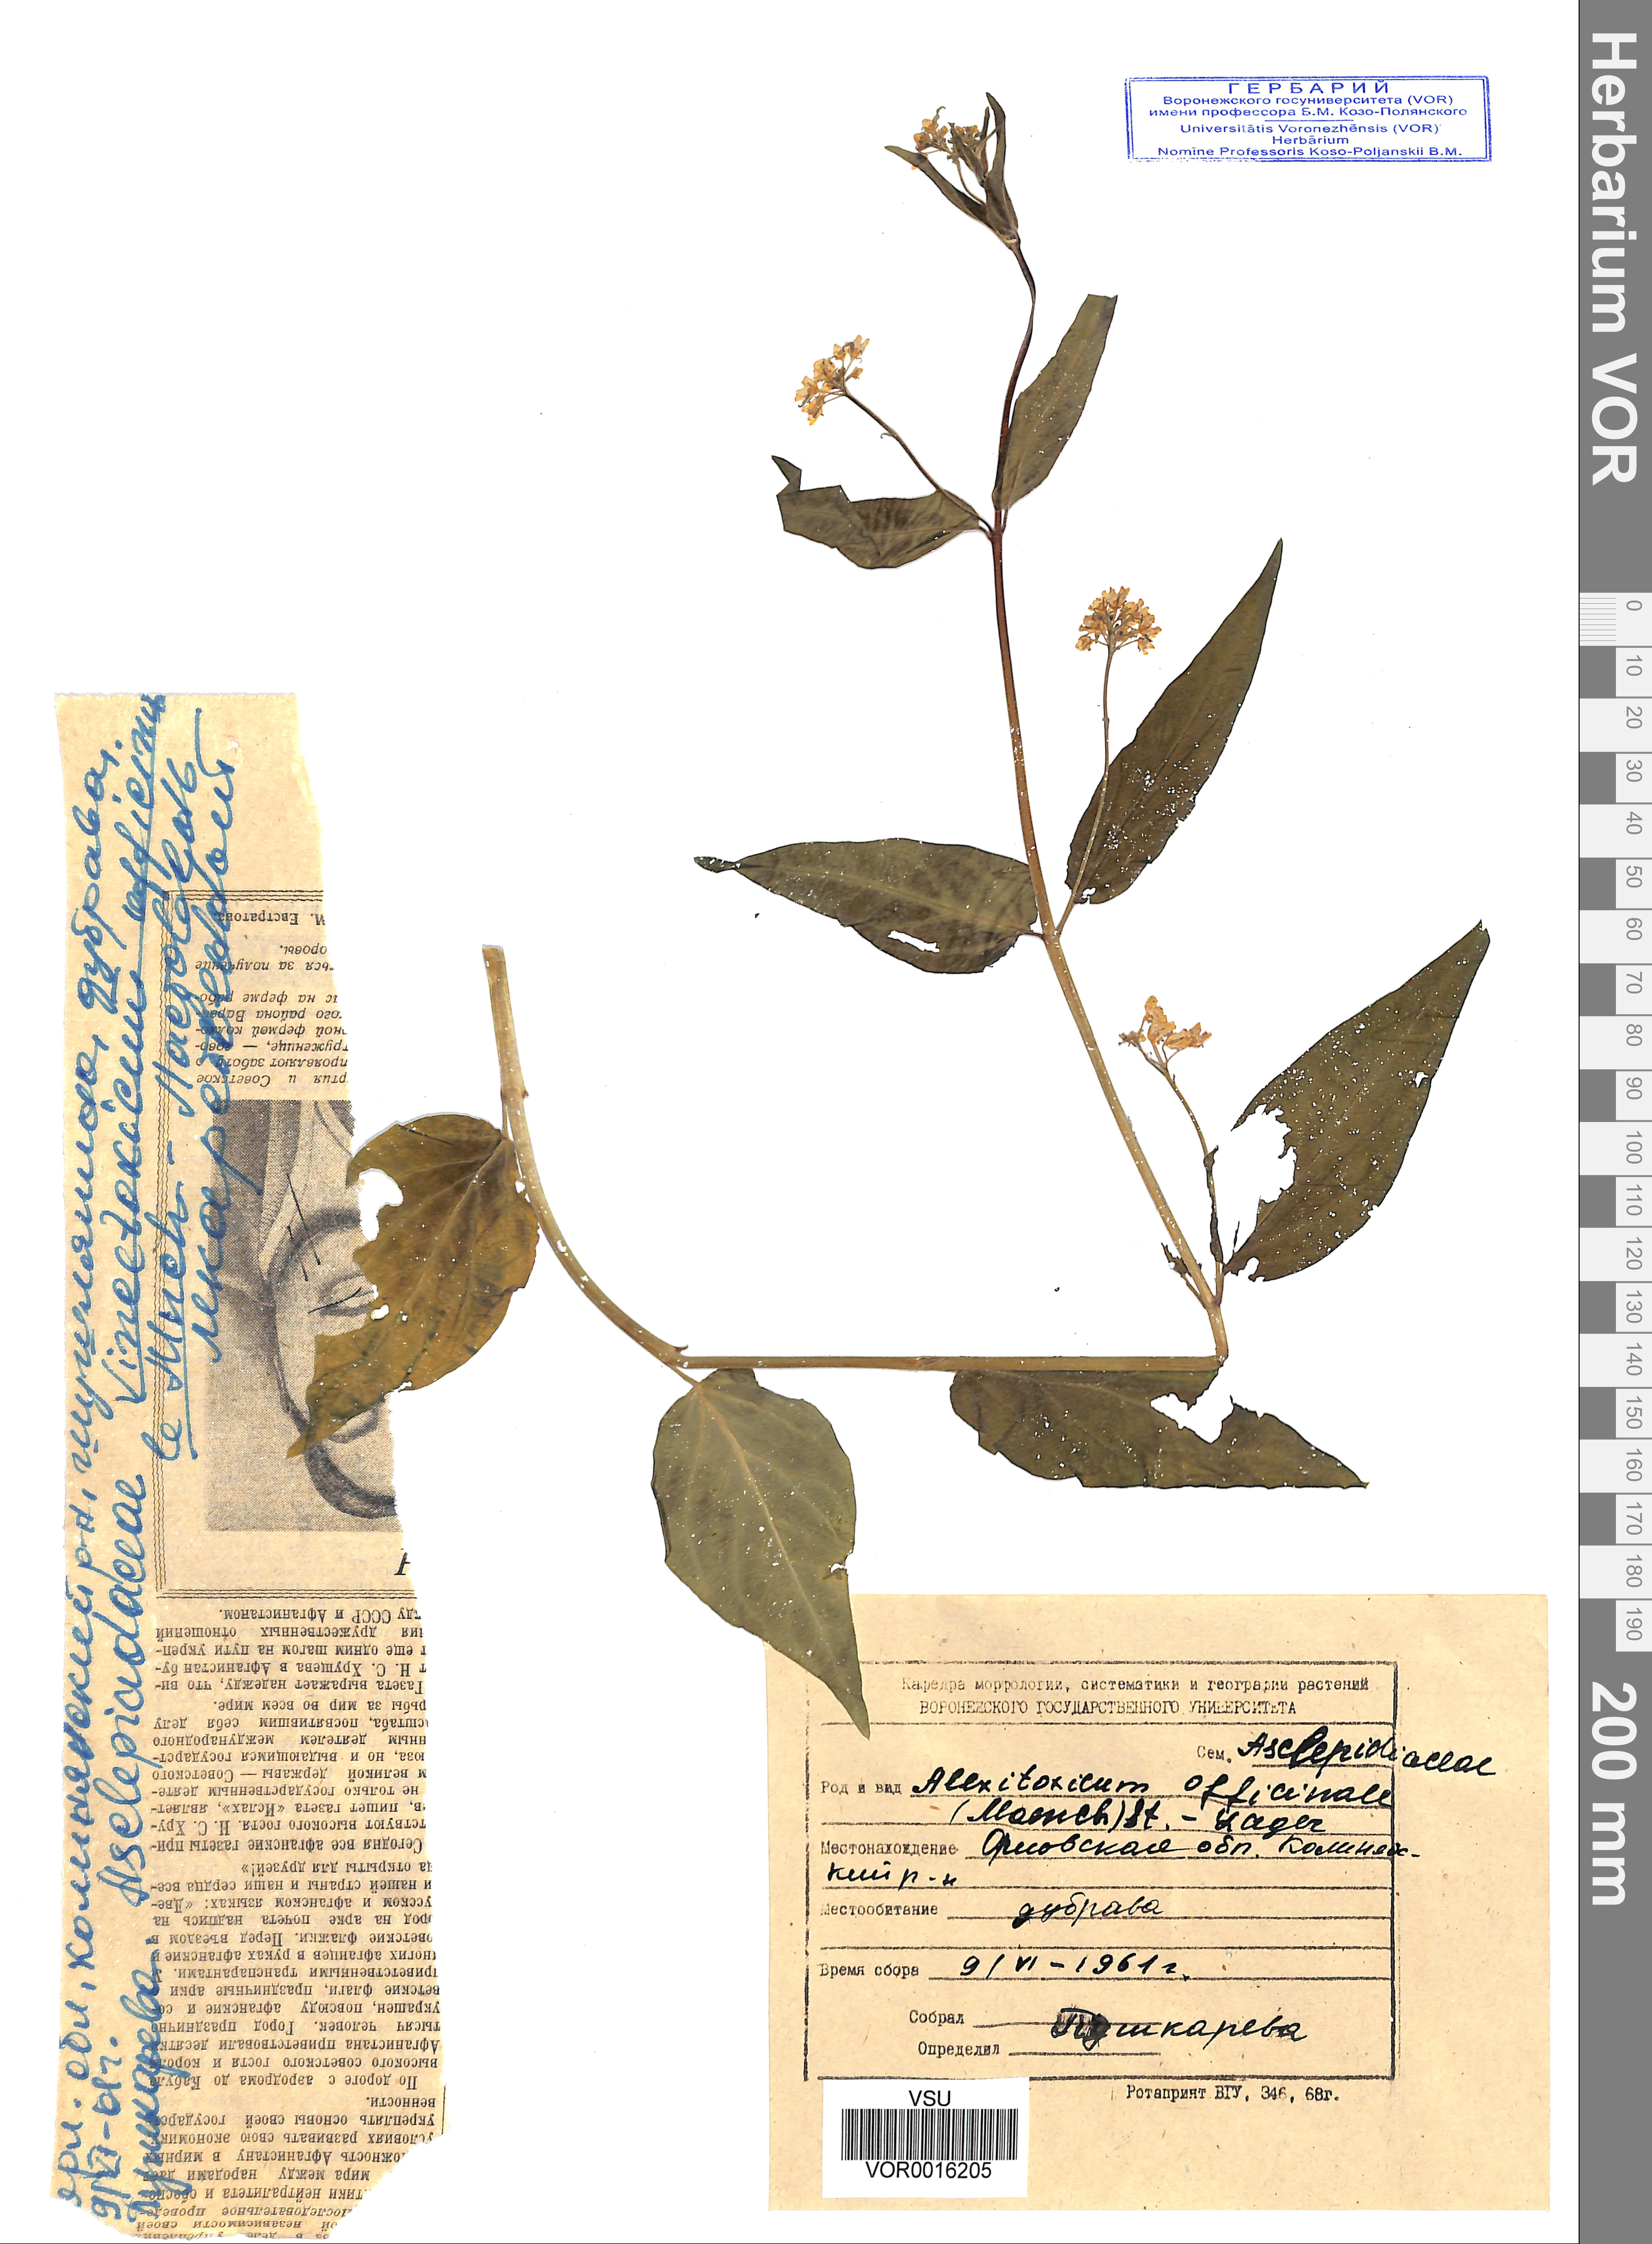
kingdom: Plantae
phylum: Tracheophyta
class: Magnoliopsida
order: Gentianales
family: Apocynaceae
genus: Vincetoxicum
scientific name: Vincetoxicum hirundinaria
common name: White swallowwort
